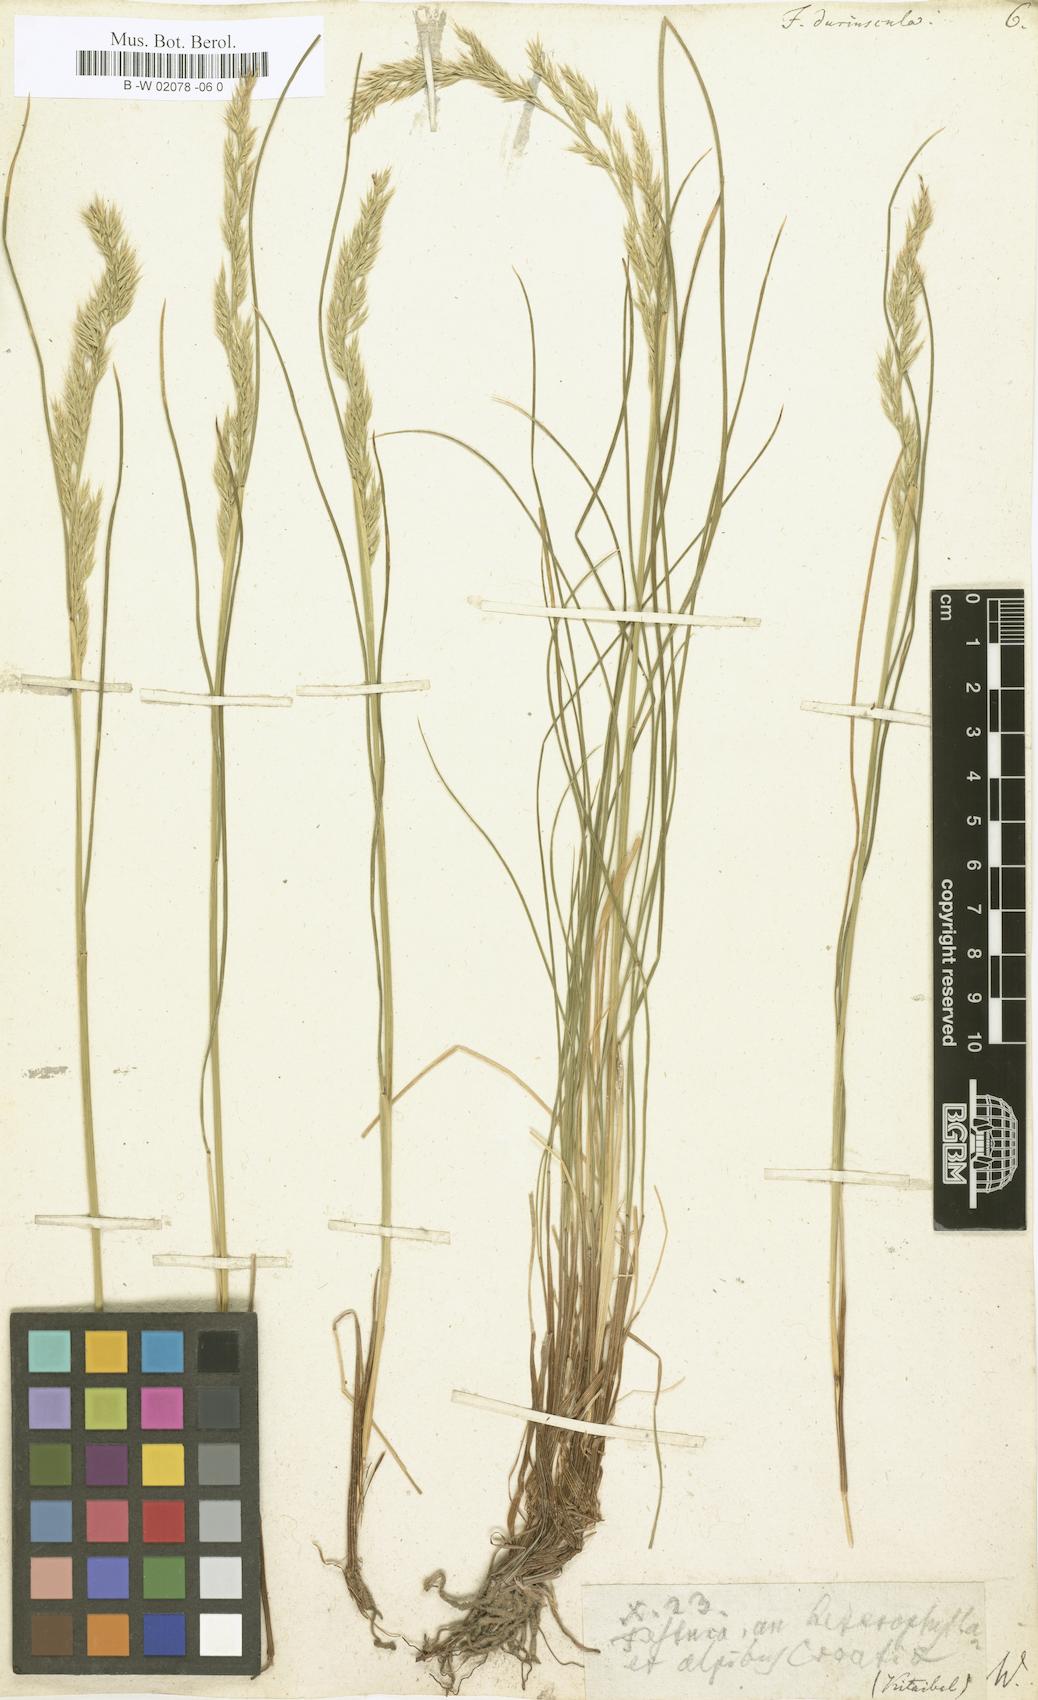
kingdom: Plantae
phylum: Tracheophyta
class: Liliopsida
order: Poales
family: Poaceae
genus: Festuca
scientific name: Festuca
